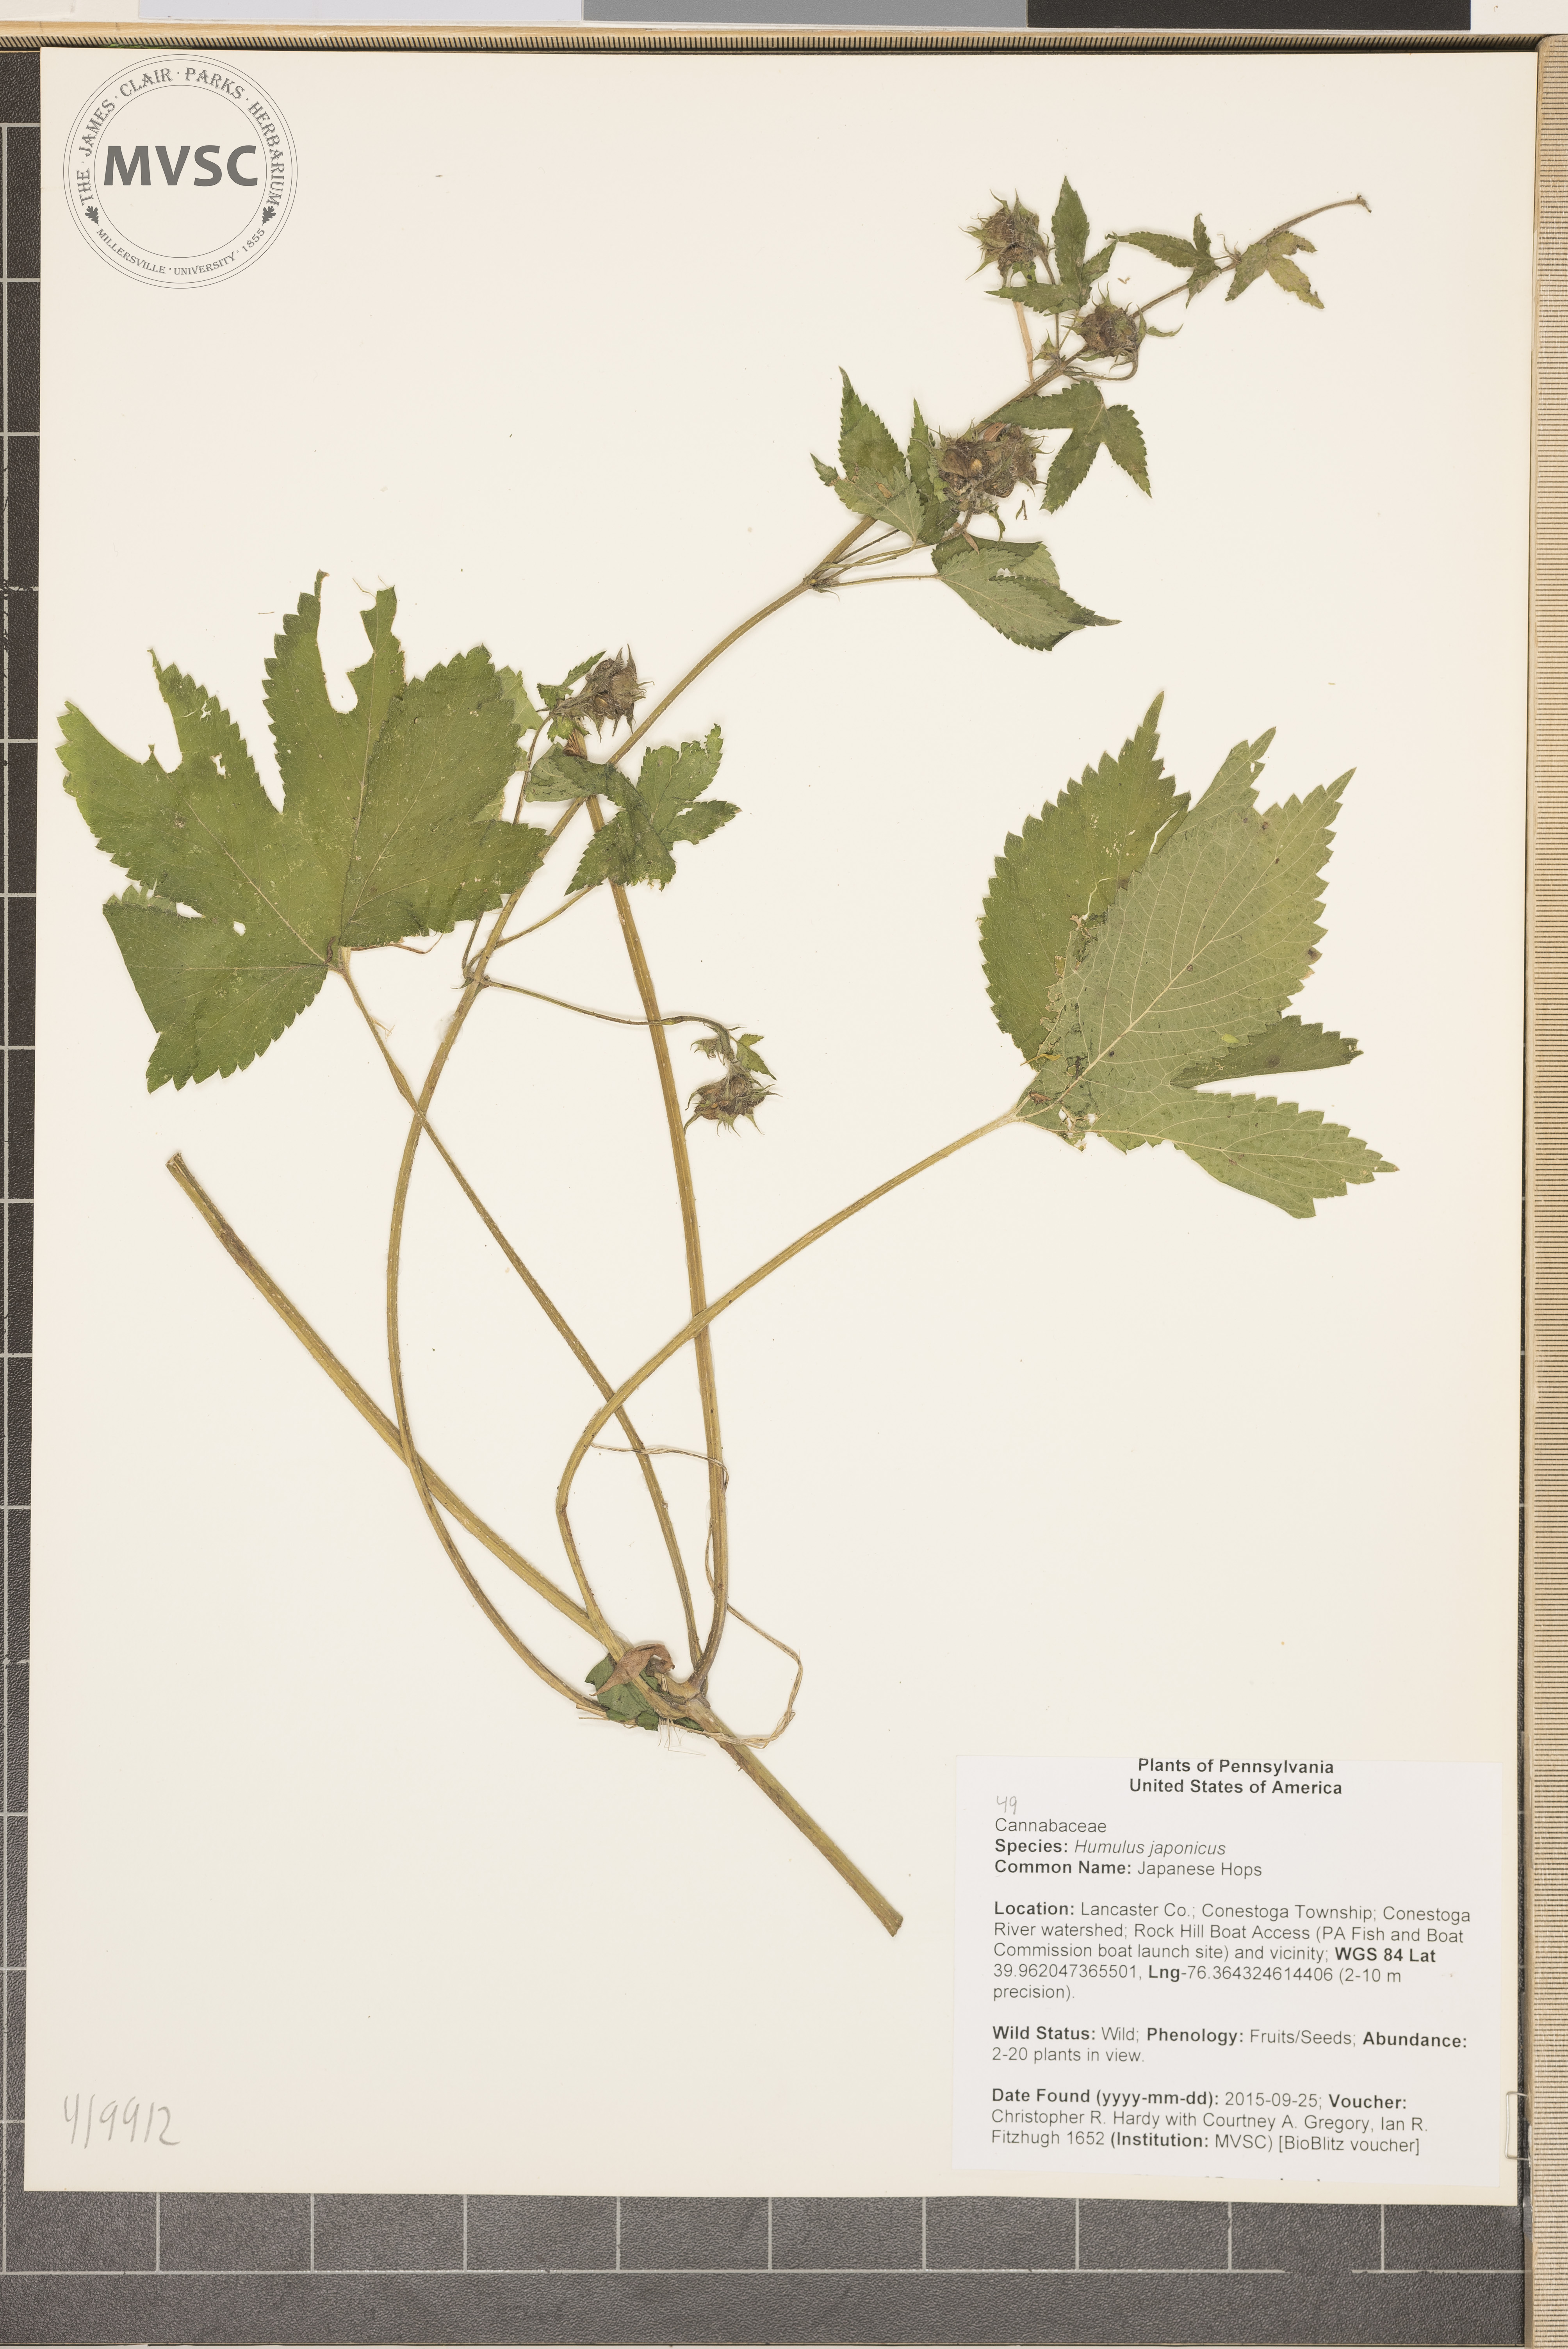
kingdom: Plantae
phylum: Tracheophyta
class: Magnoliopsida
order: Rosales
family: Cannabaceae
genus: Humulus
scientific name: Humulus scandens
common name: Japanese Hops
